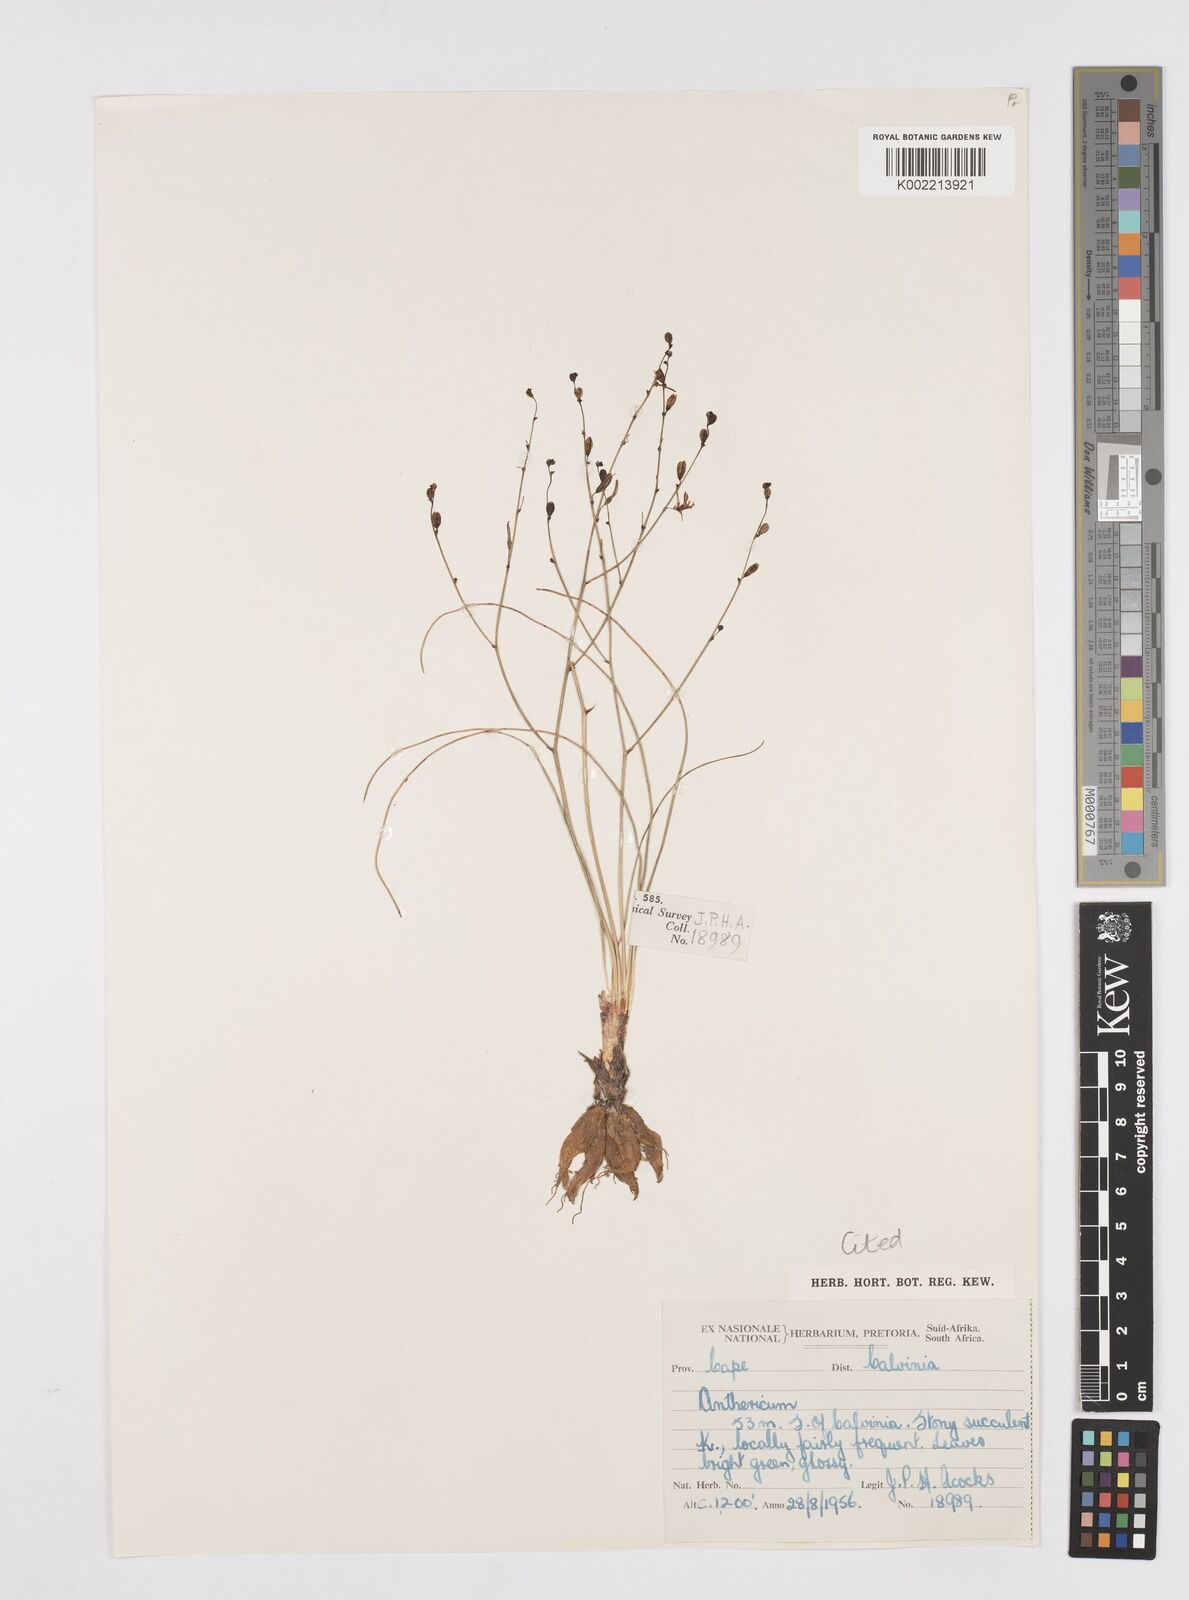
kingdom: Plantae
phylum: Tracheophyta
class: Liliopsida
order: Asparagales
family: Asphodelaceae
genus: Trachyandra
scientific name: Trachyandra dissecta
